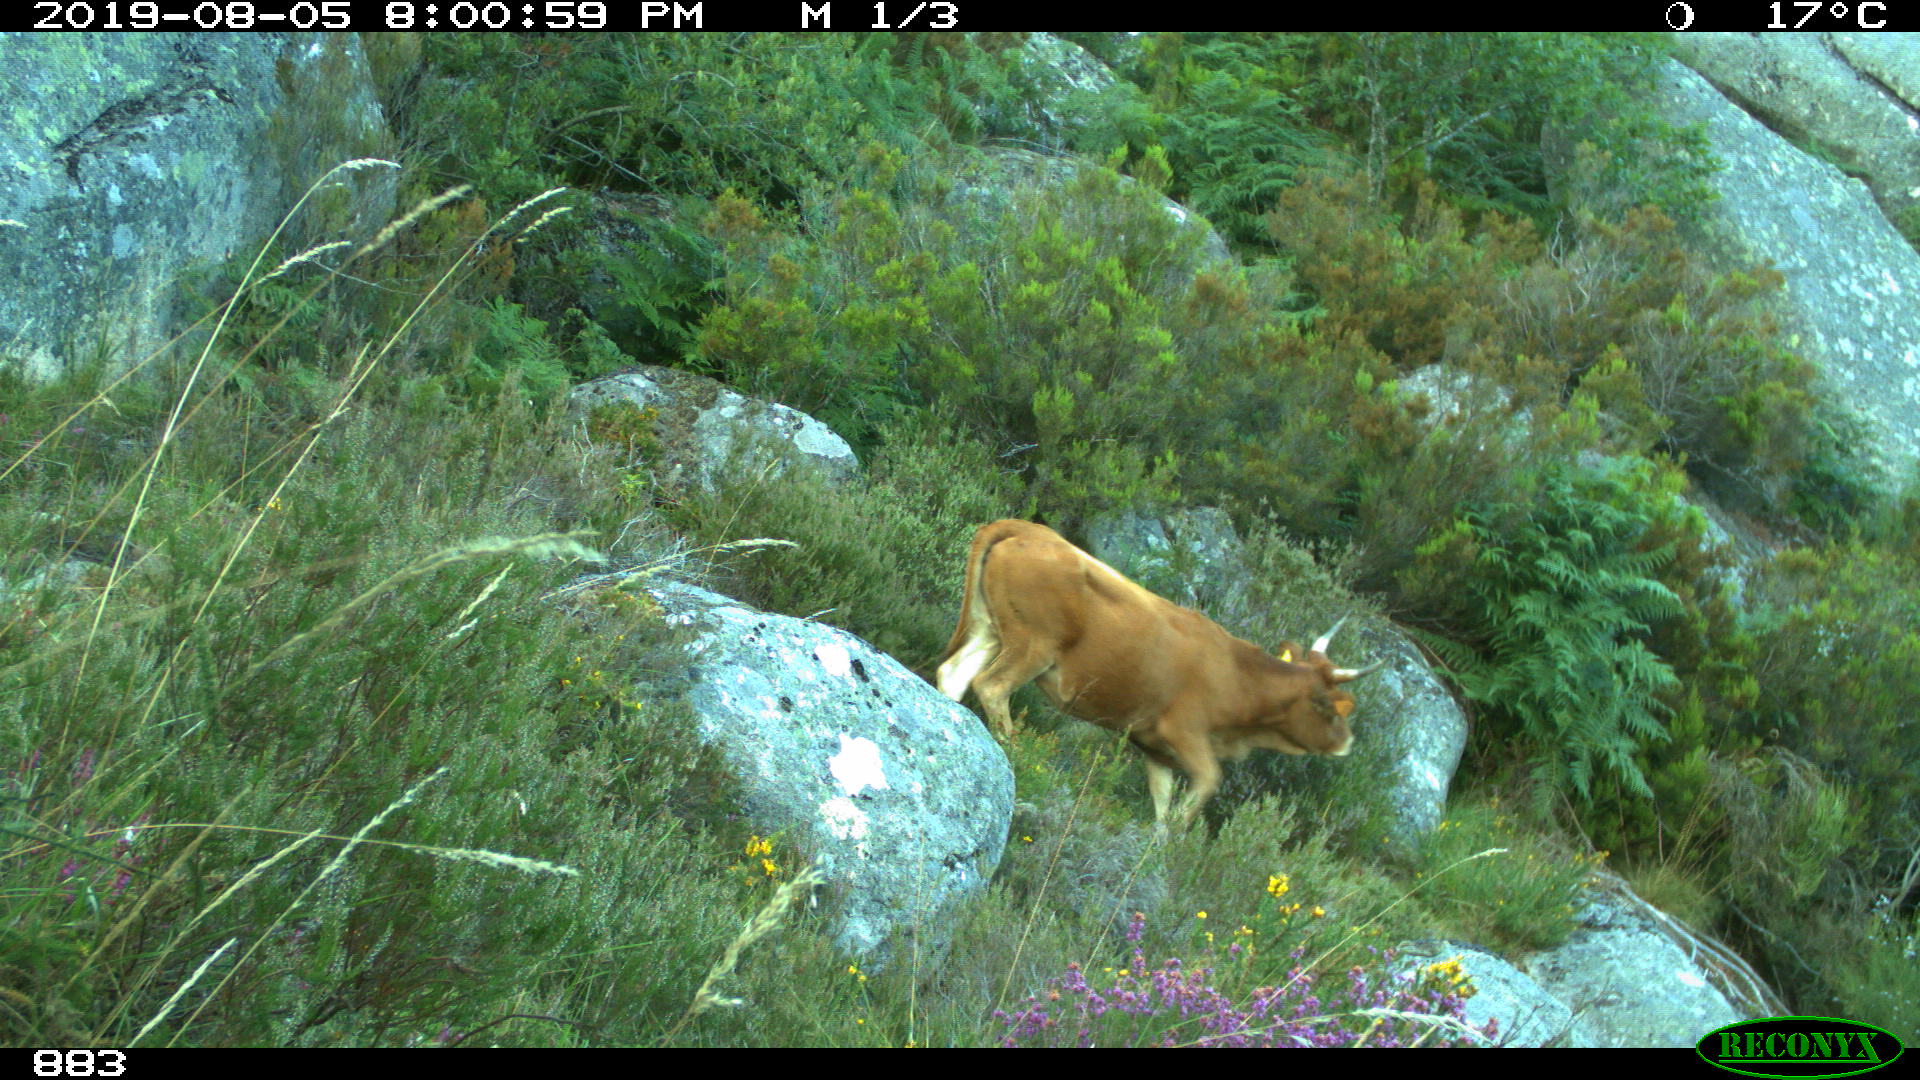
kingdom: Animalia
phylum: Chordata
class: Mammalia
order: Artiodactyla
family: Bovidae
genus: Bos
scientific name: Bos taurus
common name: Domesticated cattle
